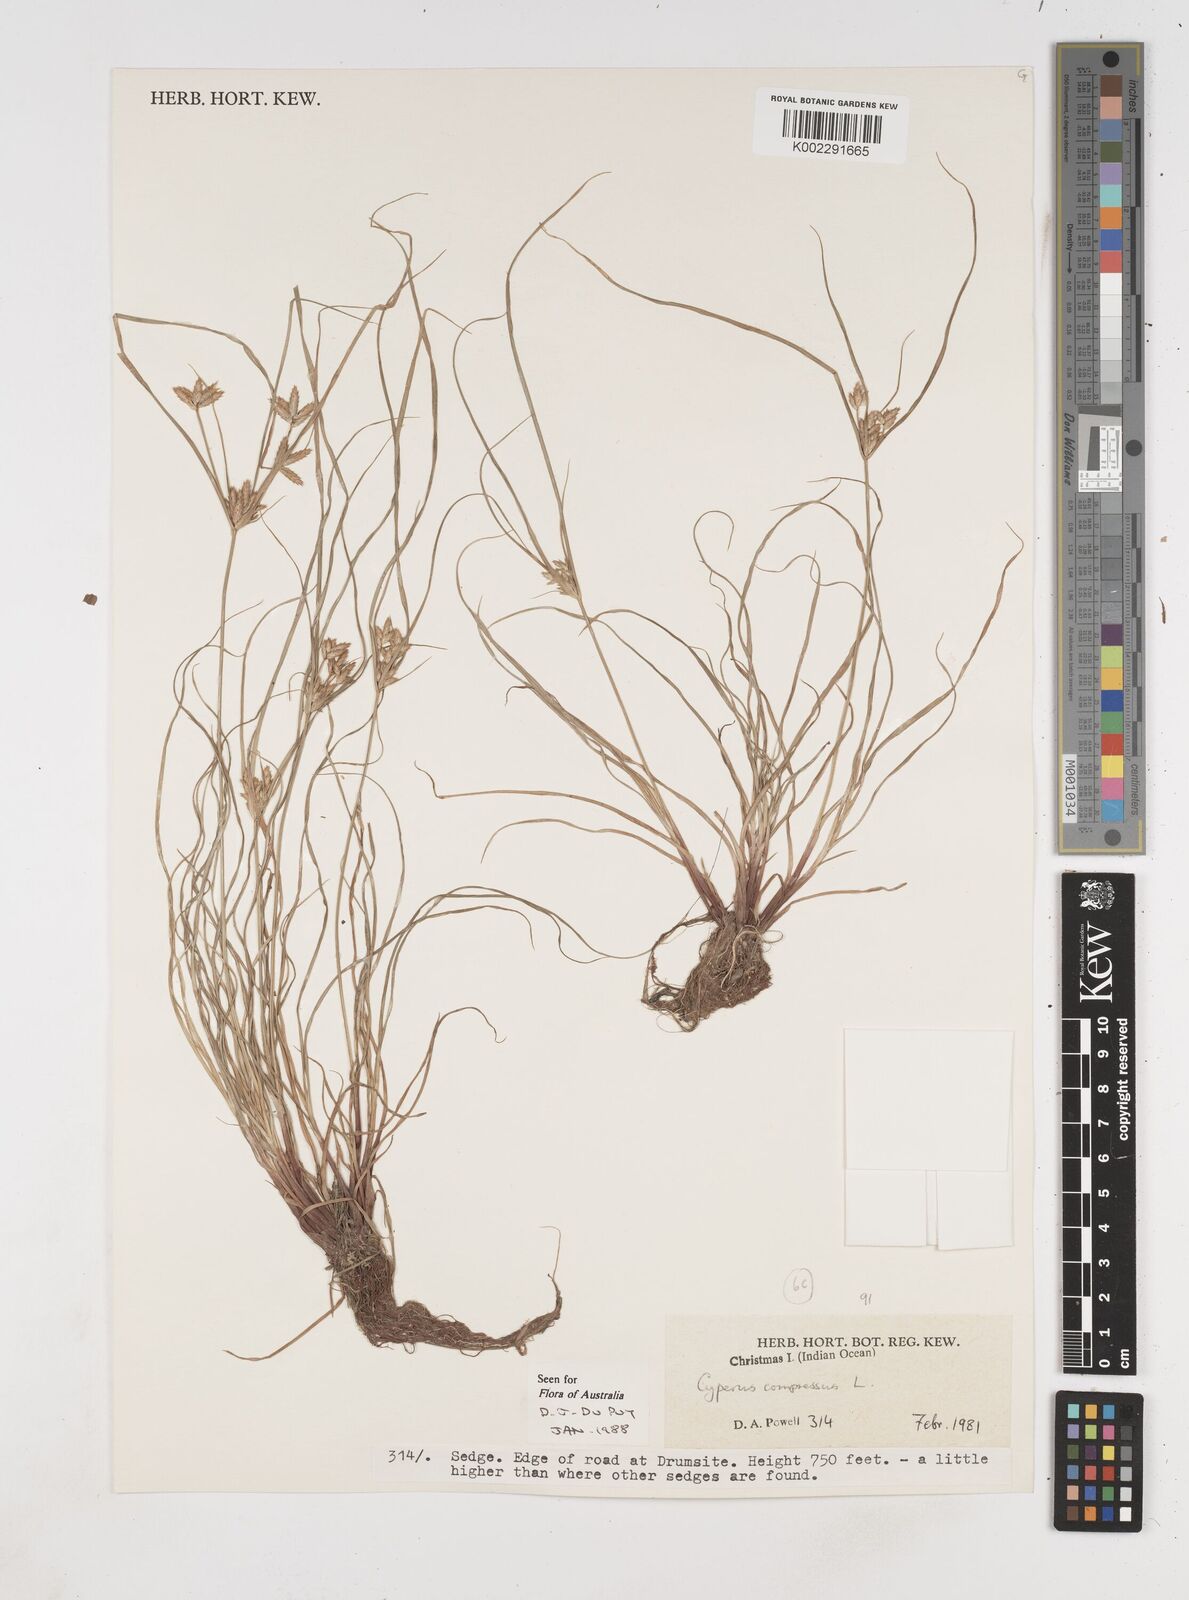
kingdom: Plantae
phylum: Tracheophyta
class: Liliopsida
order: Poales
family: Cyperaceae
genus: Cyperus
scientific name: Cyperus compressus
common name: Poorland flatsedge
